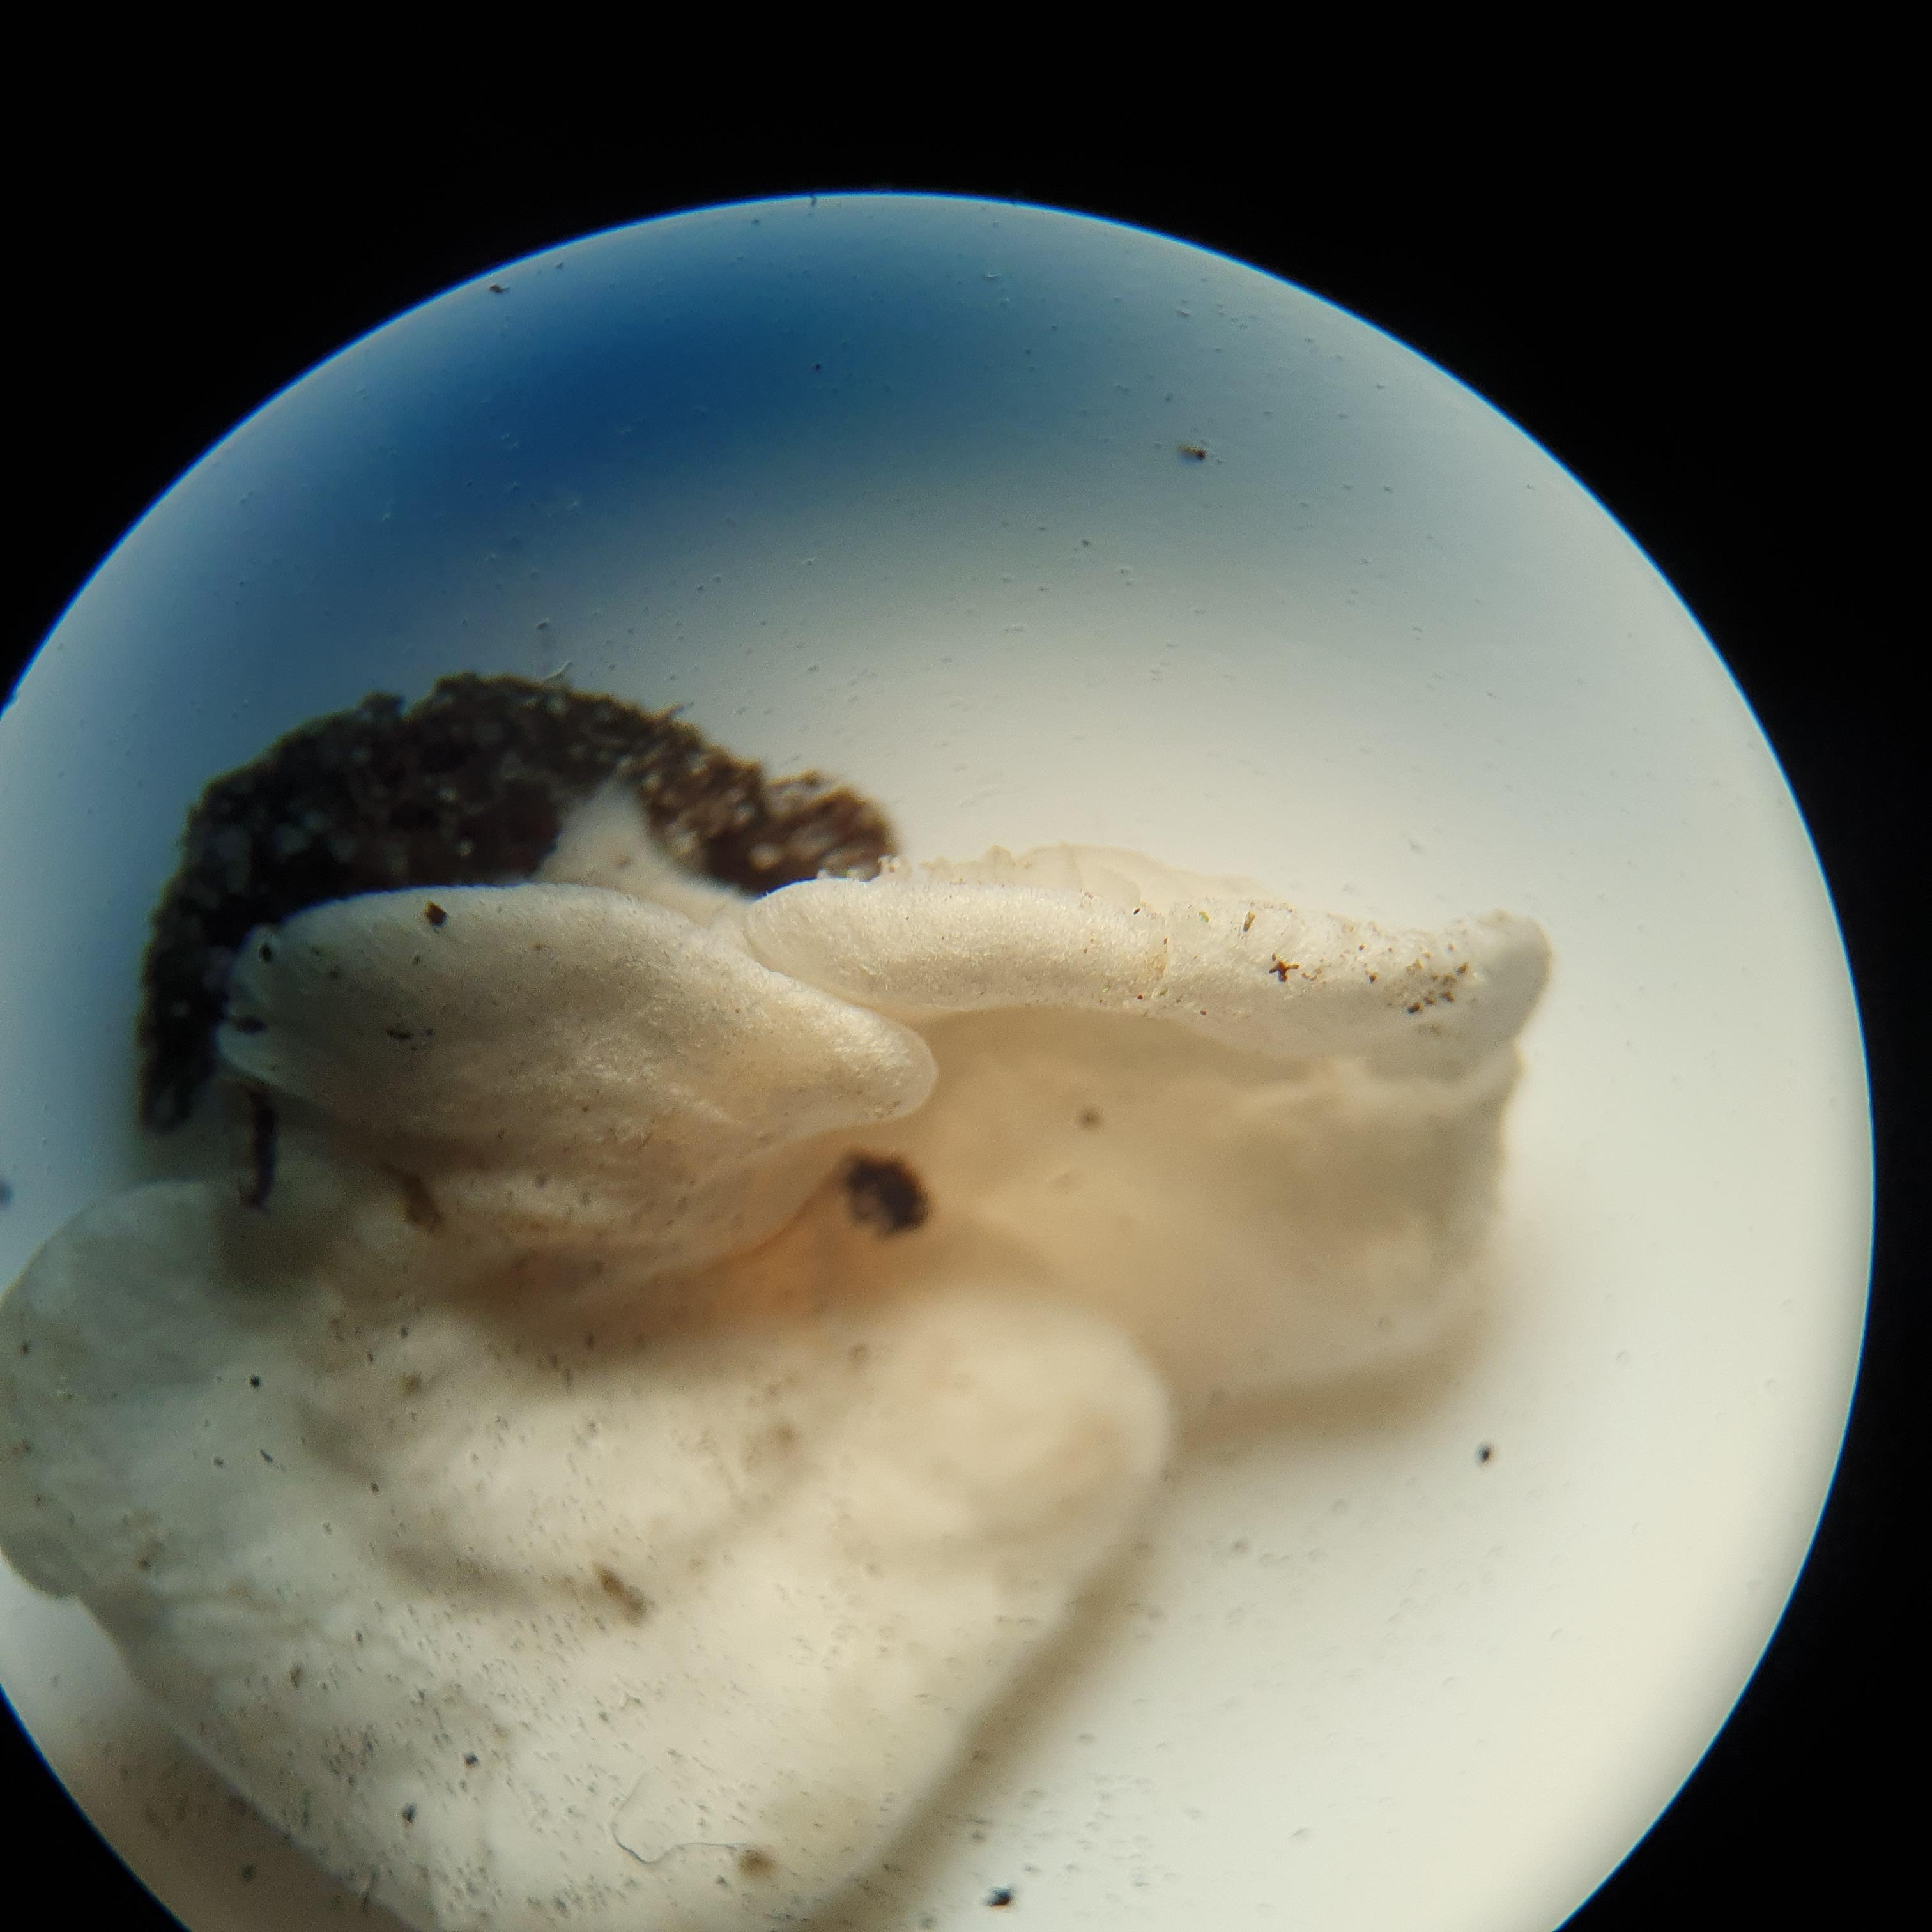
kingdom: Fungi
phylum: Basidiomycota
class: Agaricomycetes
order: Agaricales
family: Entolomataceae
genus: Clitopilus
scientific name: Clitopilus scyphoides
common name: spinkel melhat
